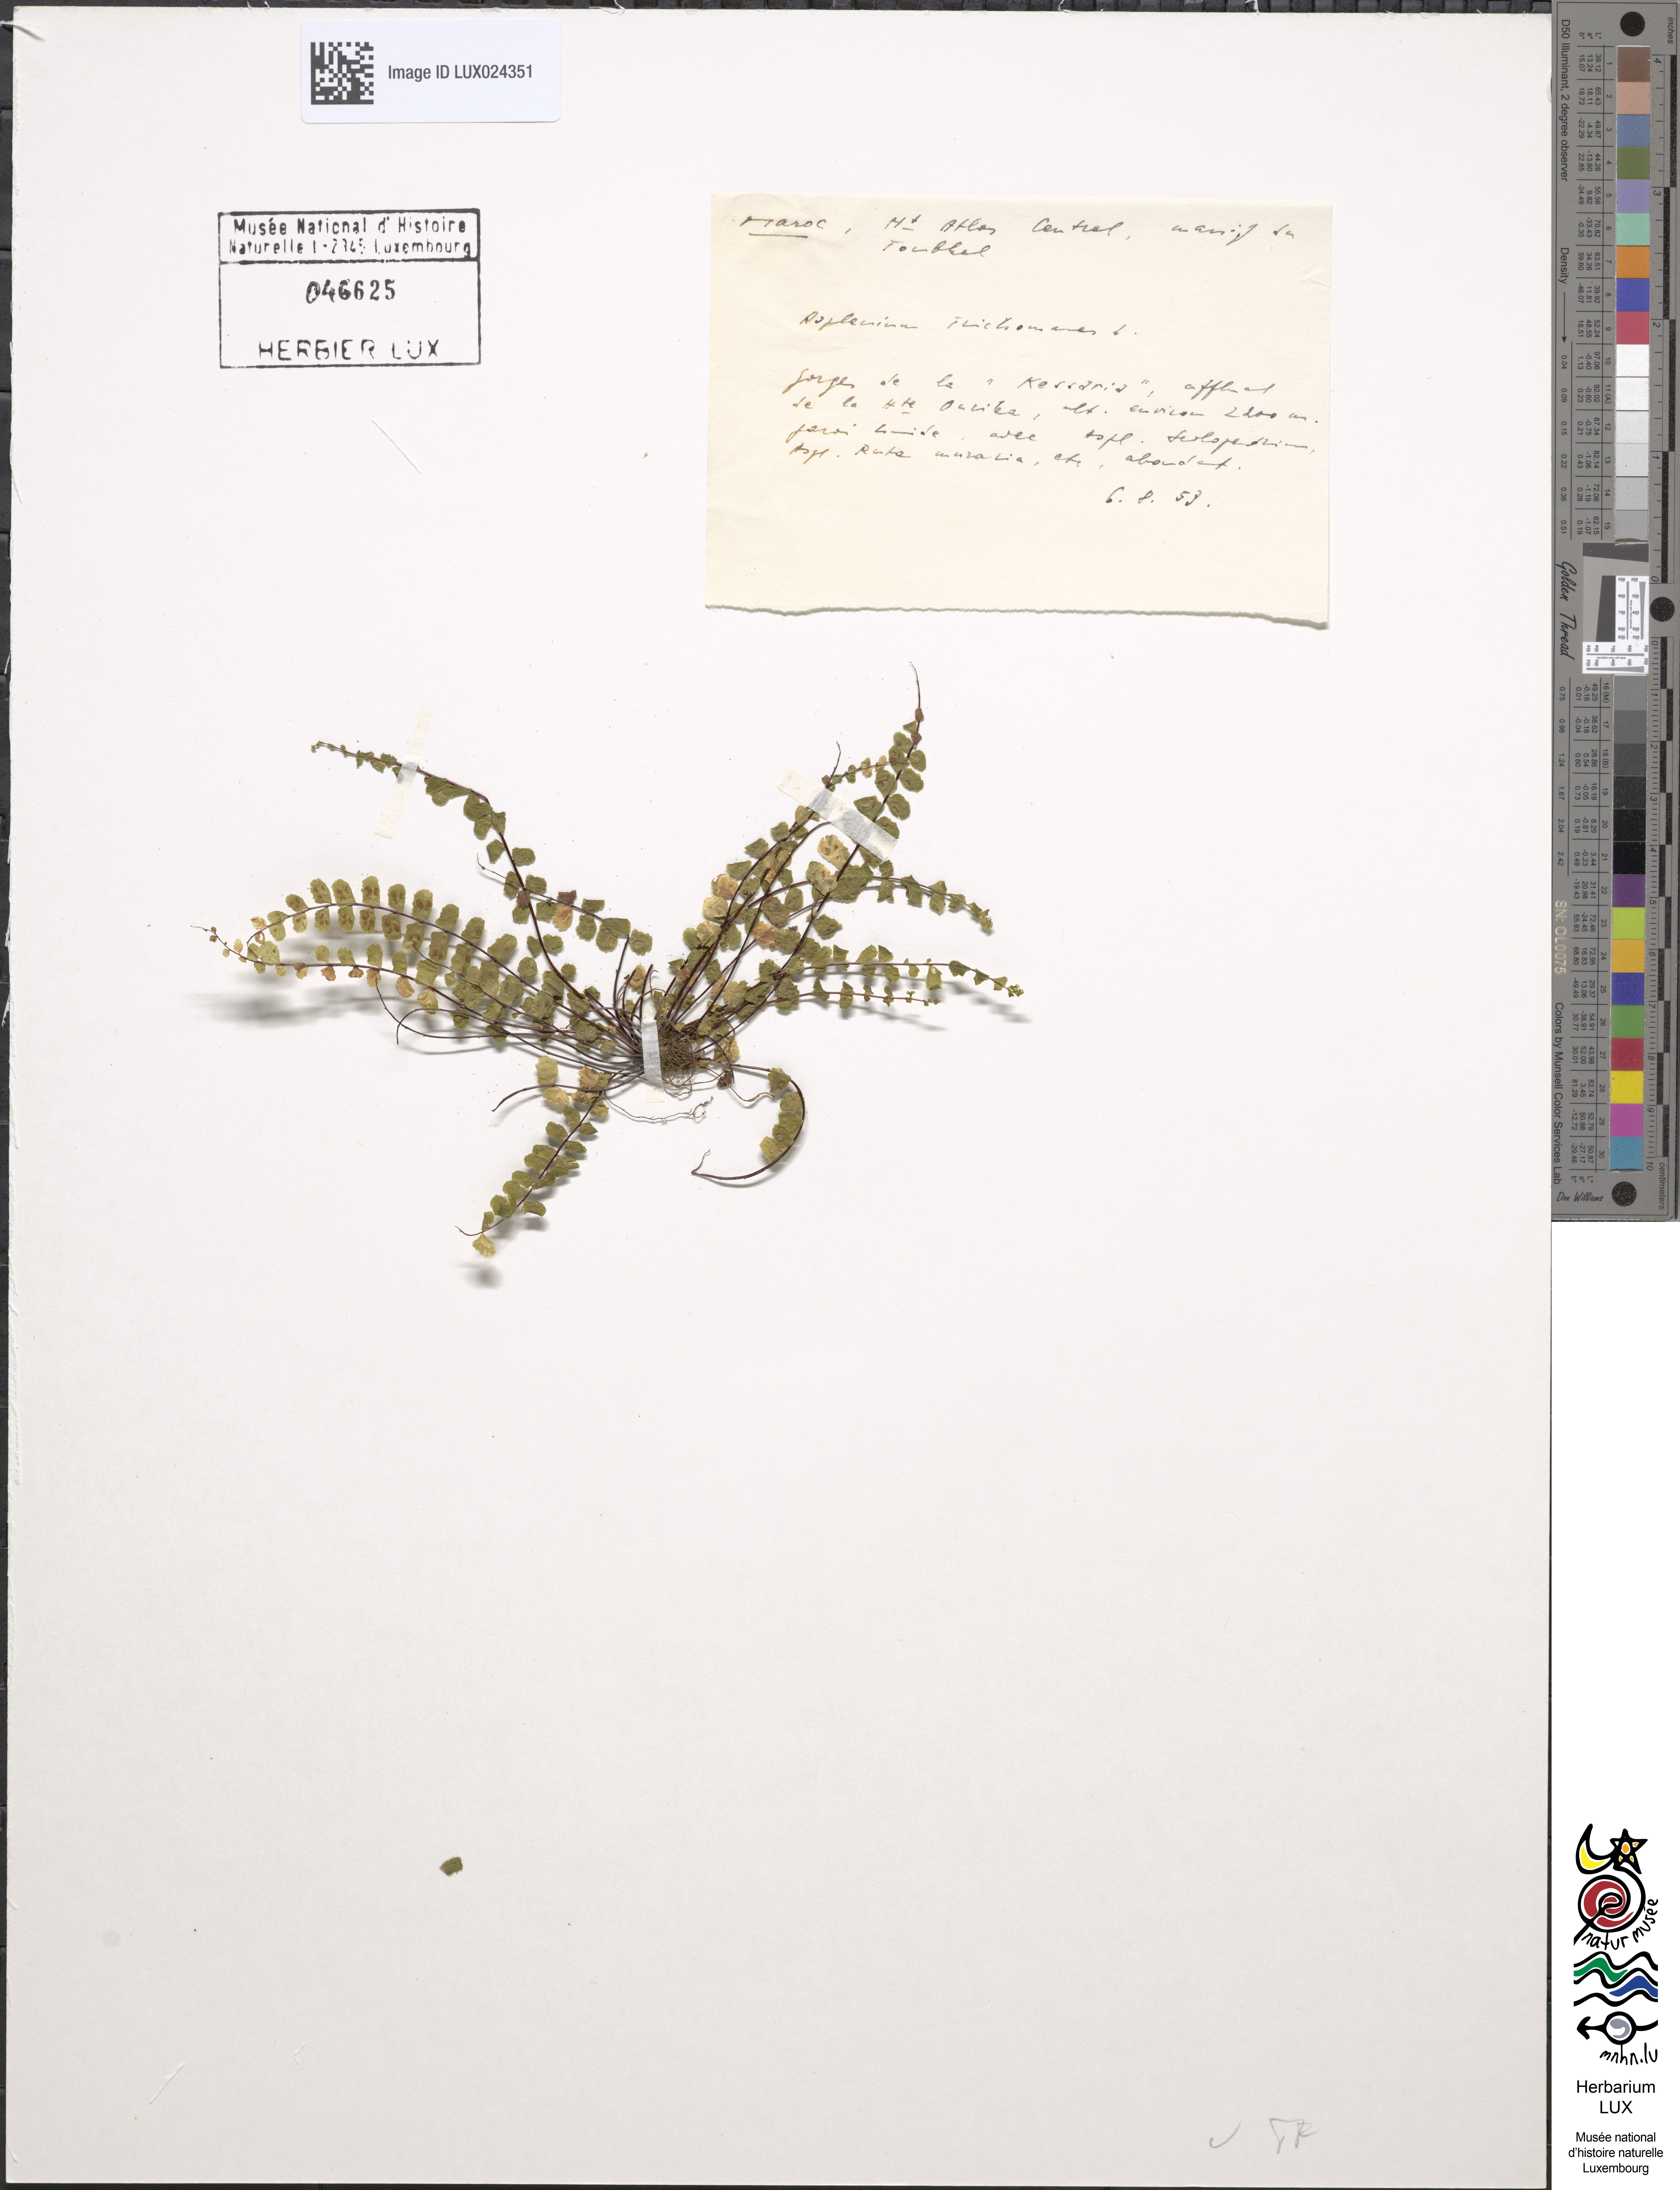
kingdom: Plantae
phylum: Tracheophyta
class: Polypodiopsida
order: Polypodiales
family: Aspleniaceae
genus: Asplenium
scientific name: Asplenium trichomanes
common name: Maidenhair spleenwort
